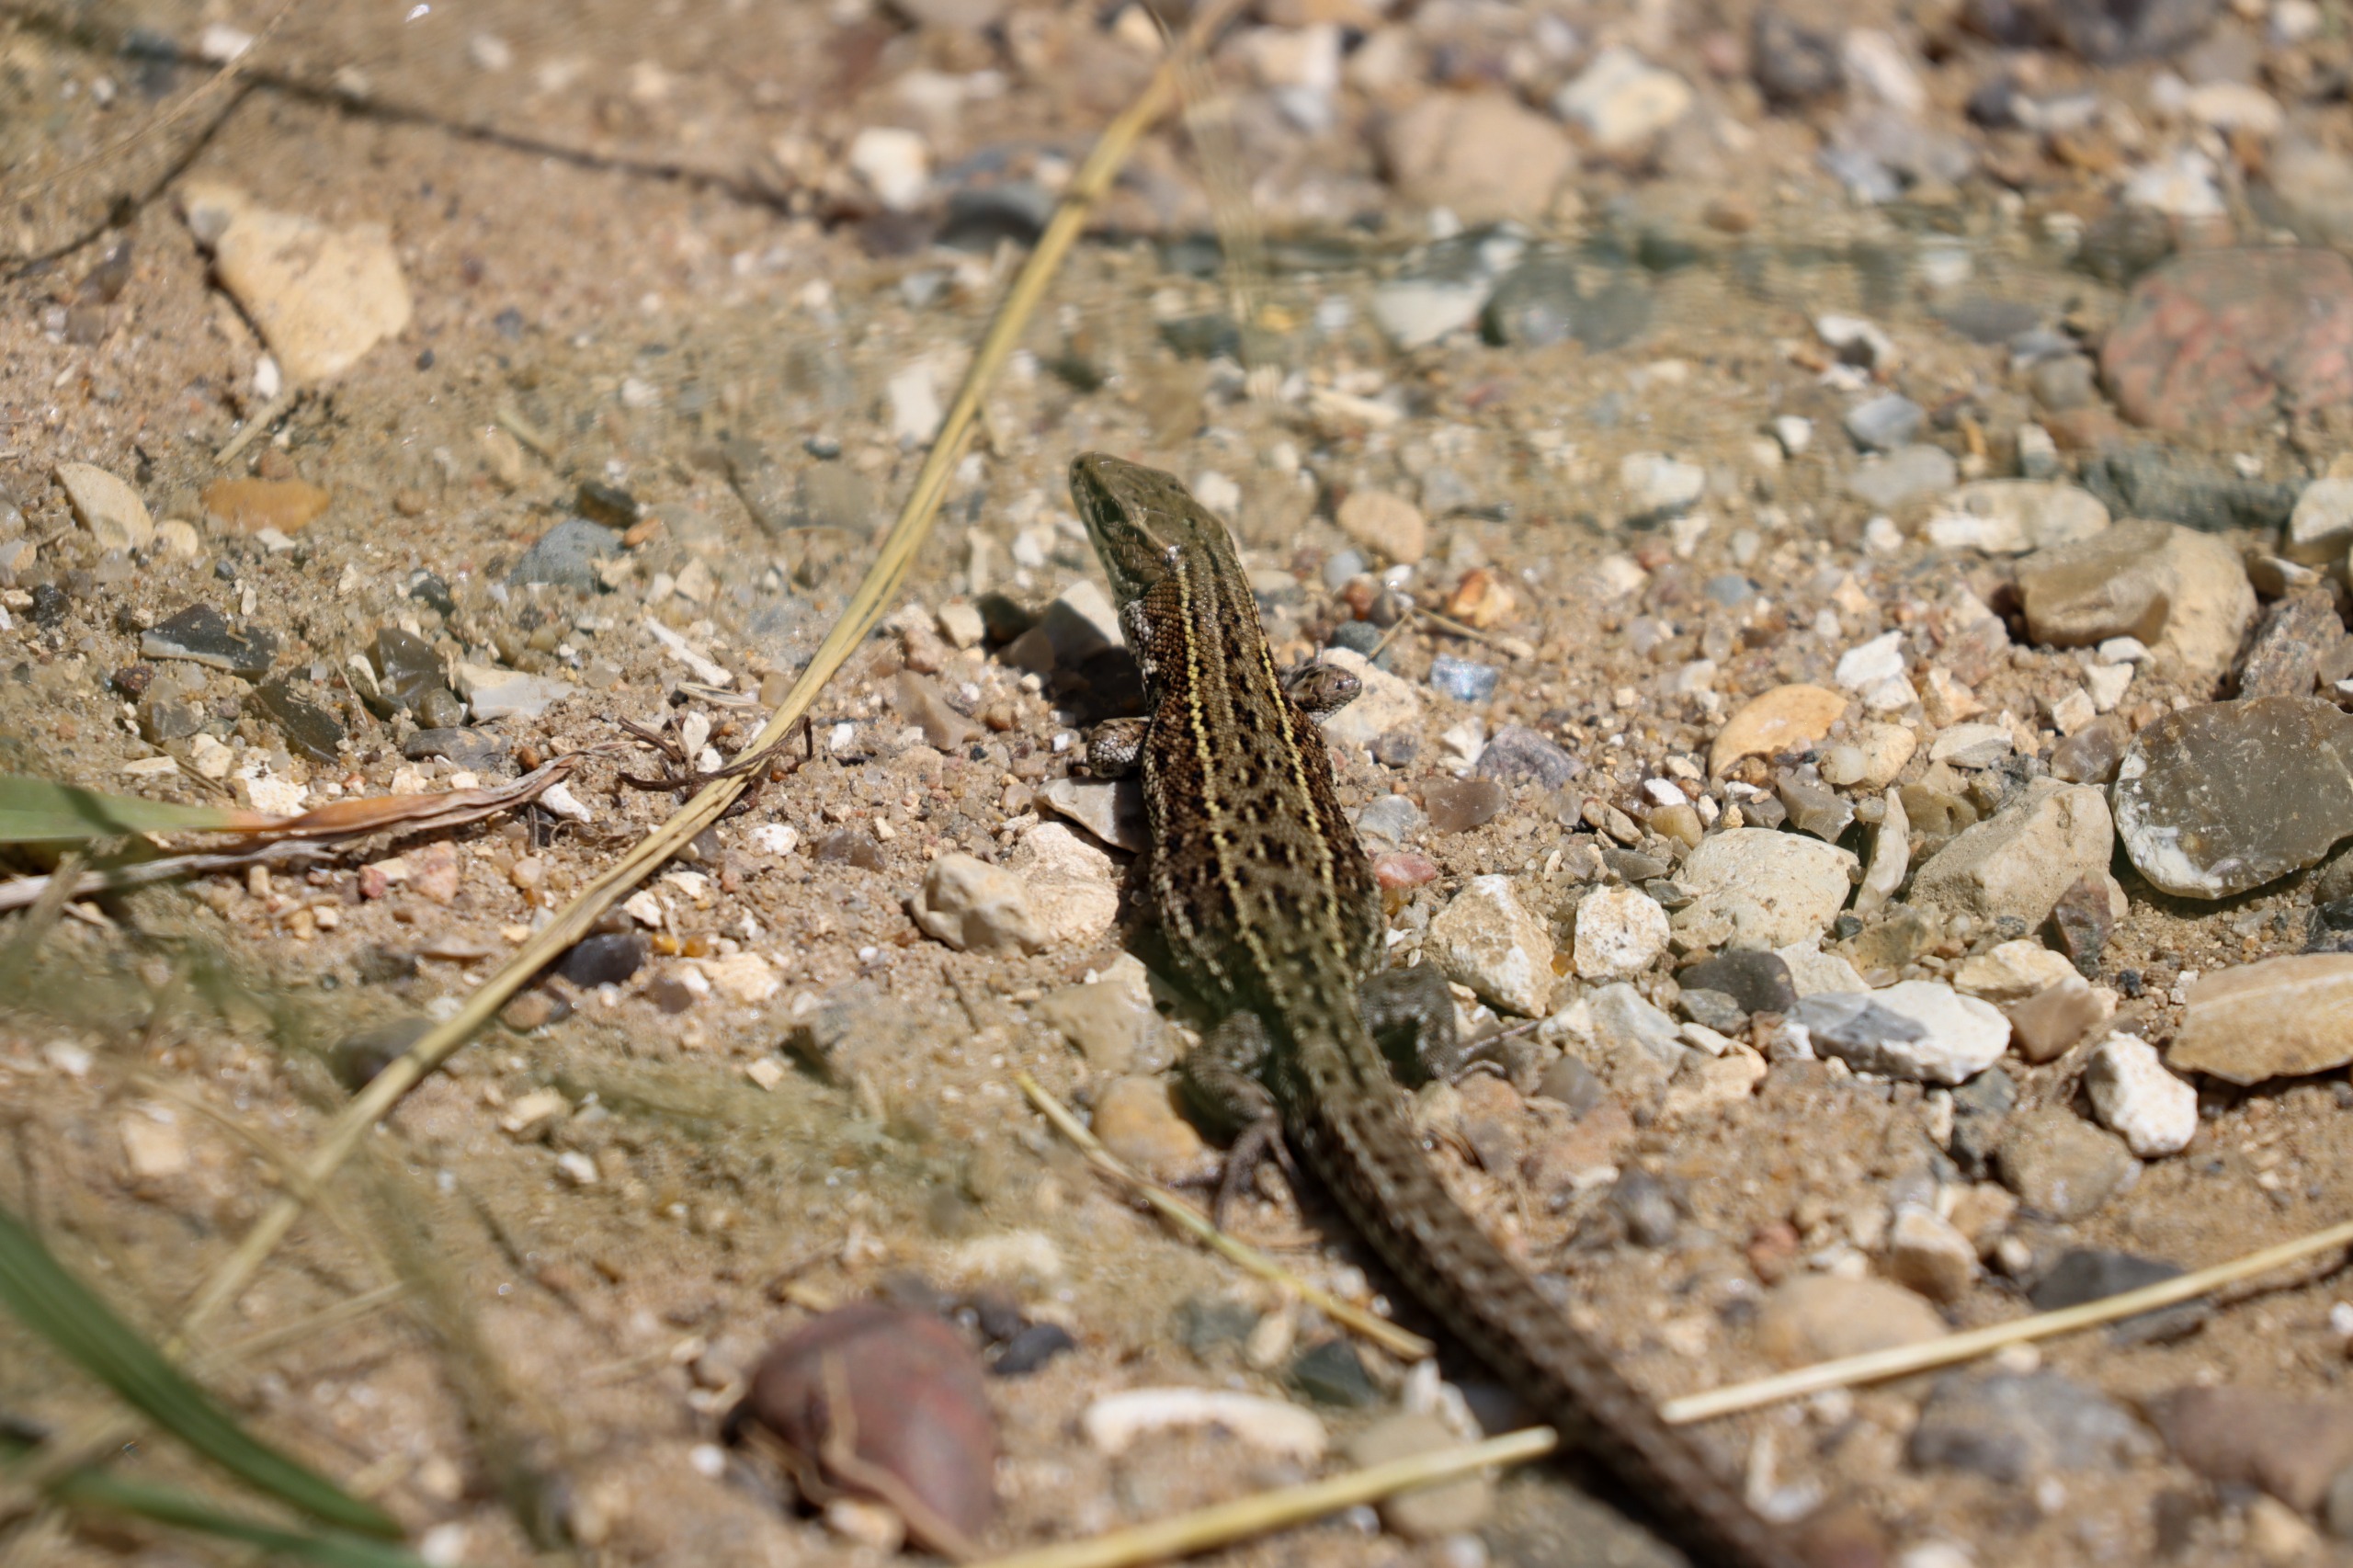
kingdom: Animalia
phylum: Chordata
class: Squamata
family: Lacertidae
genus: Zootoca
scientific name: Zootoca vivipara
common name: Skovfirben
